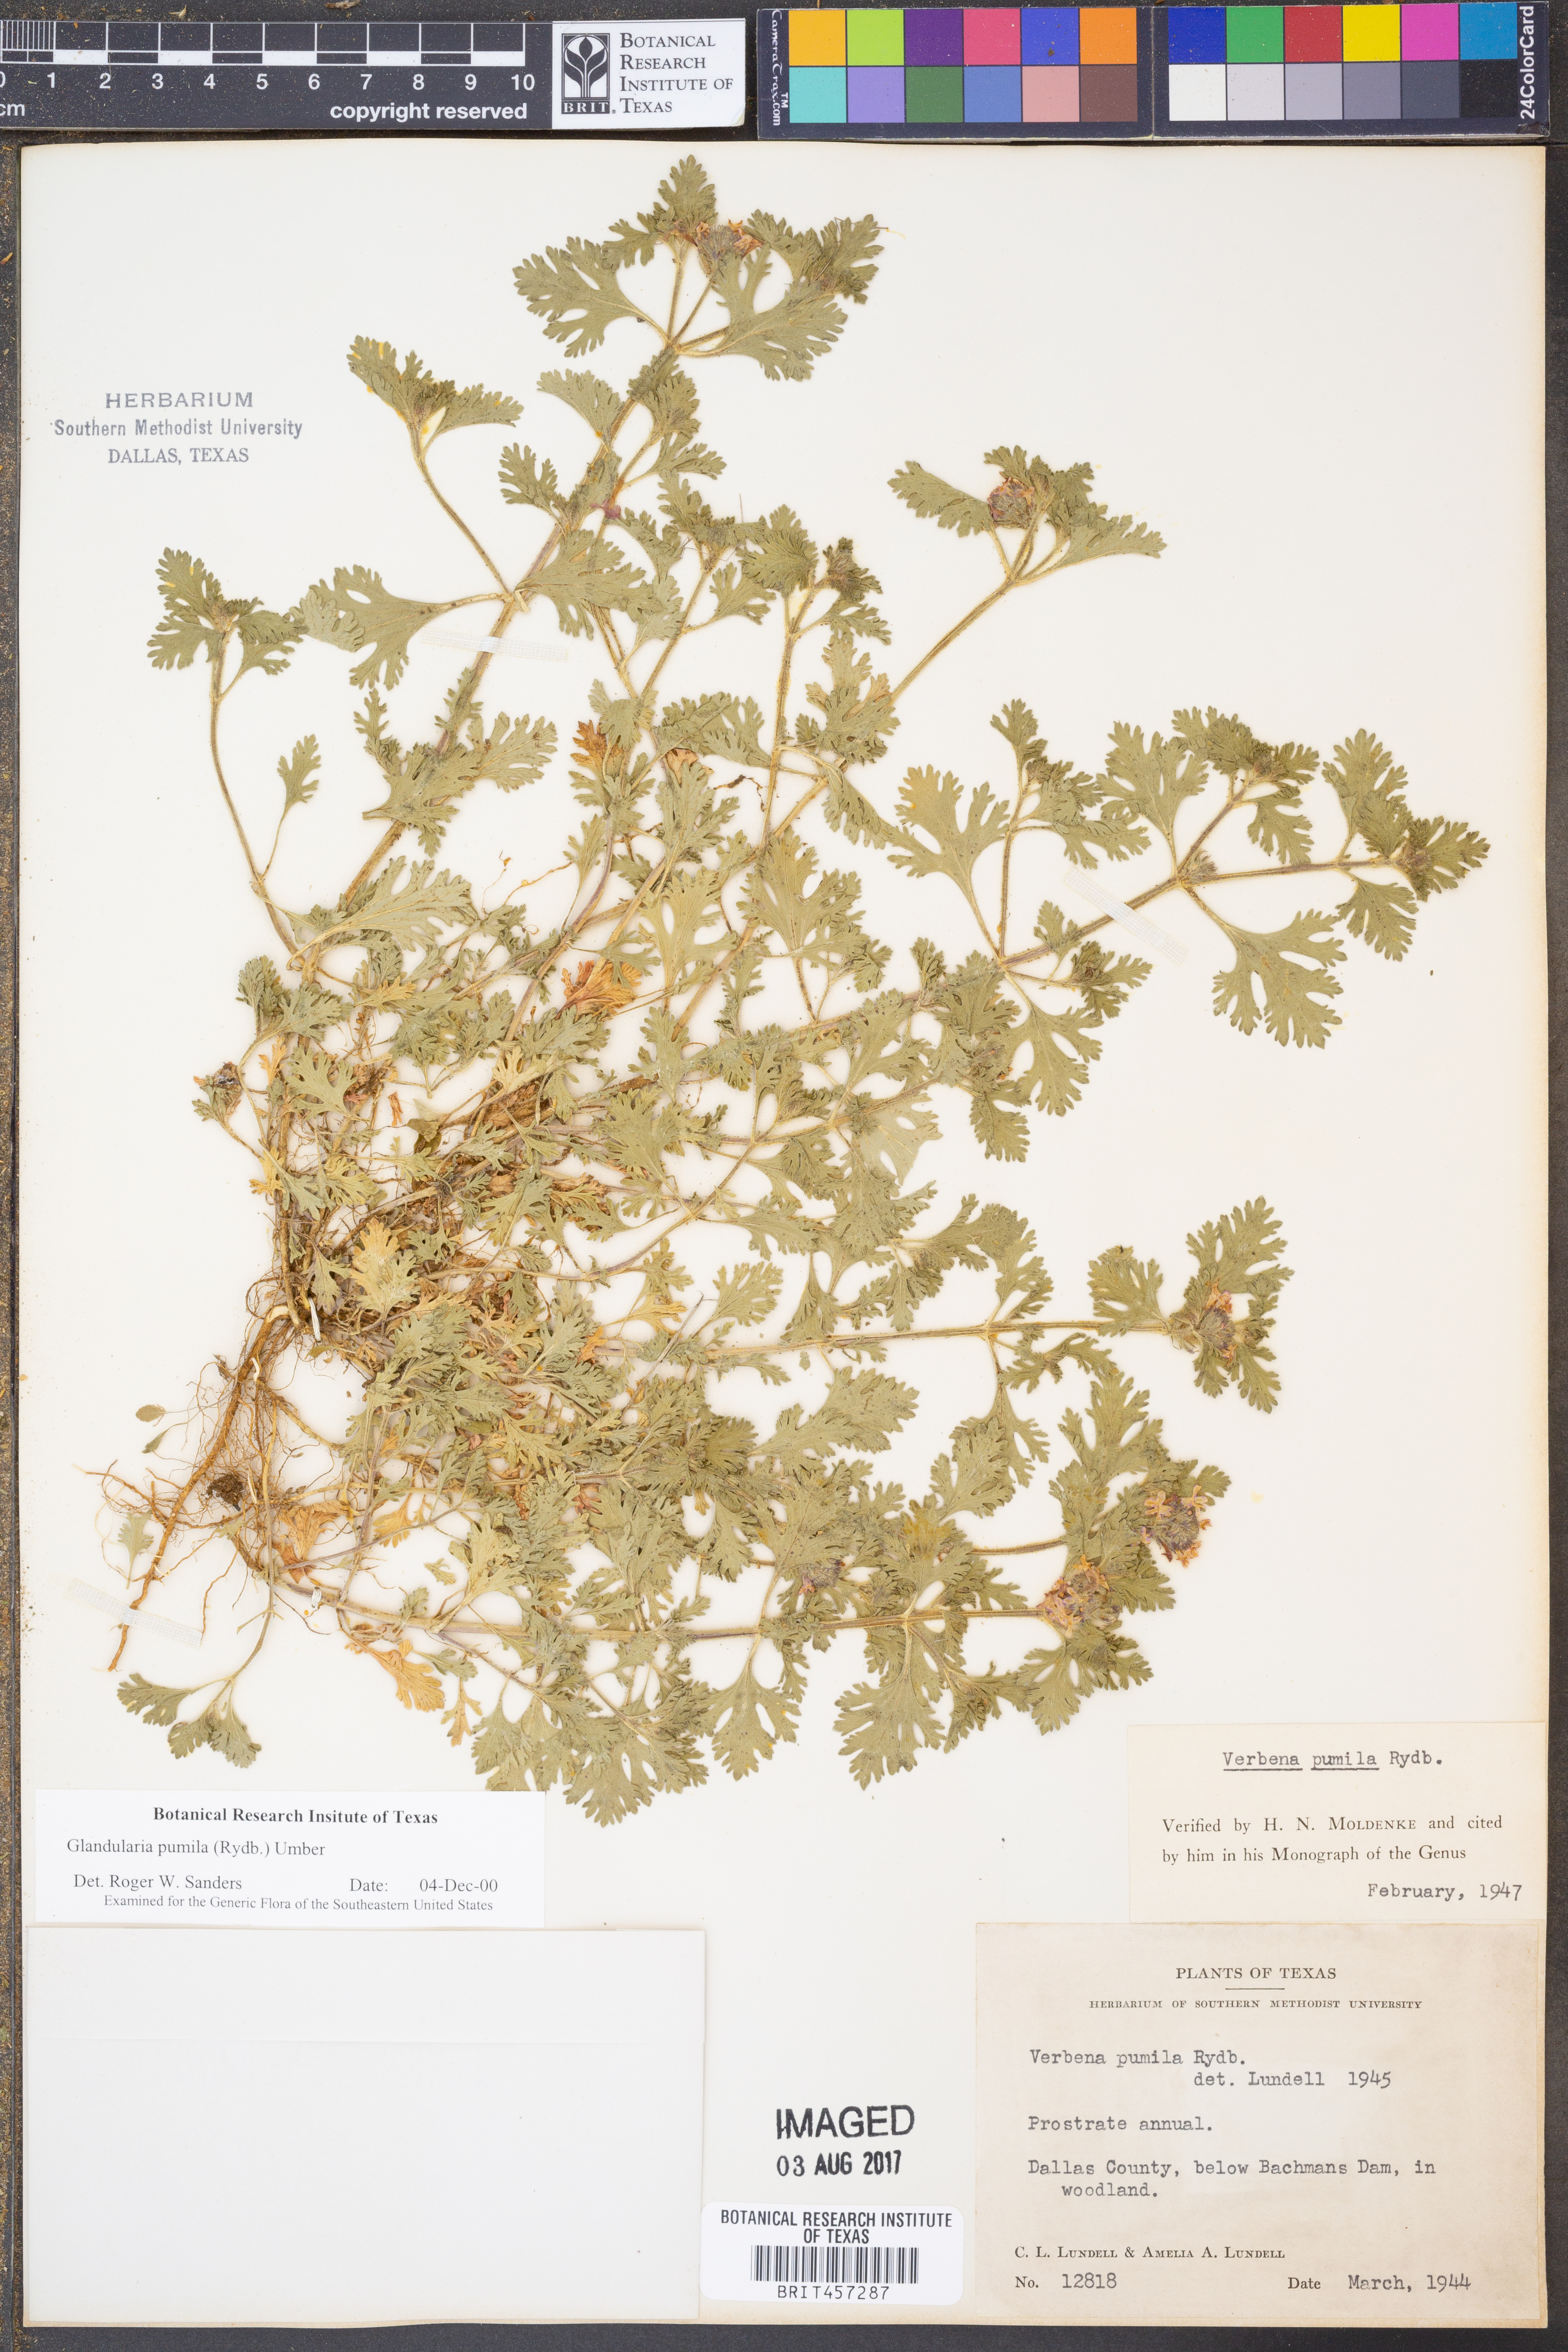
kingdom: Plantae
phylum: Tracheophyta
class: Magnoliopsida
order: Lamiales
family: Verbenaceae
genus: Verbena
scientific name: Verbena pumila
